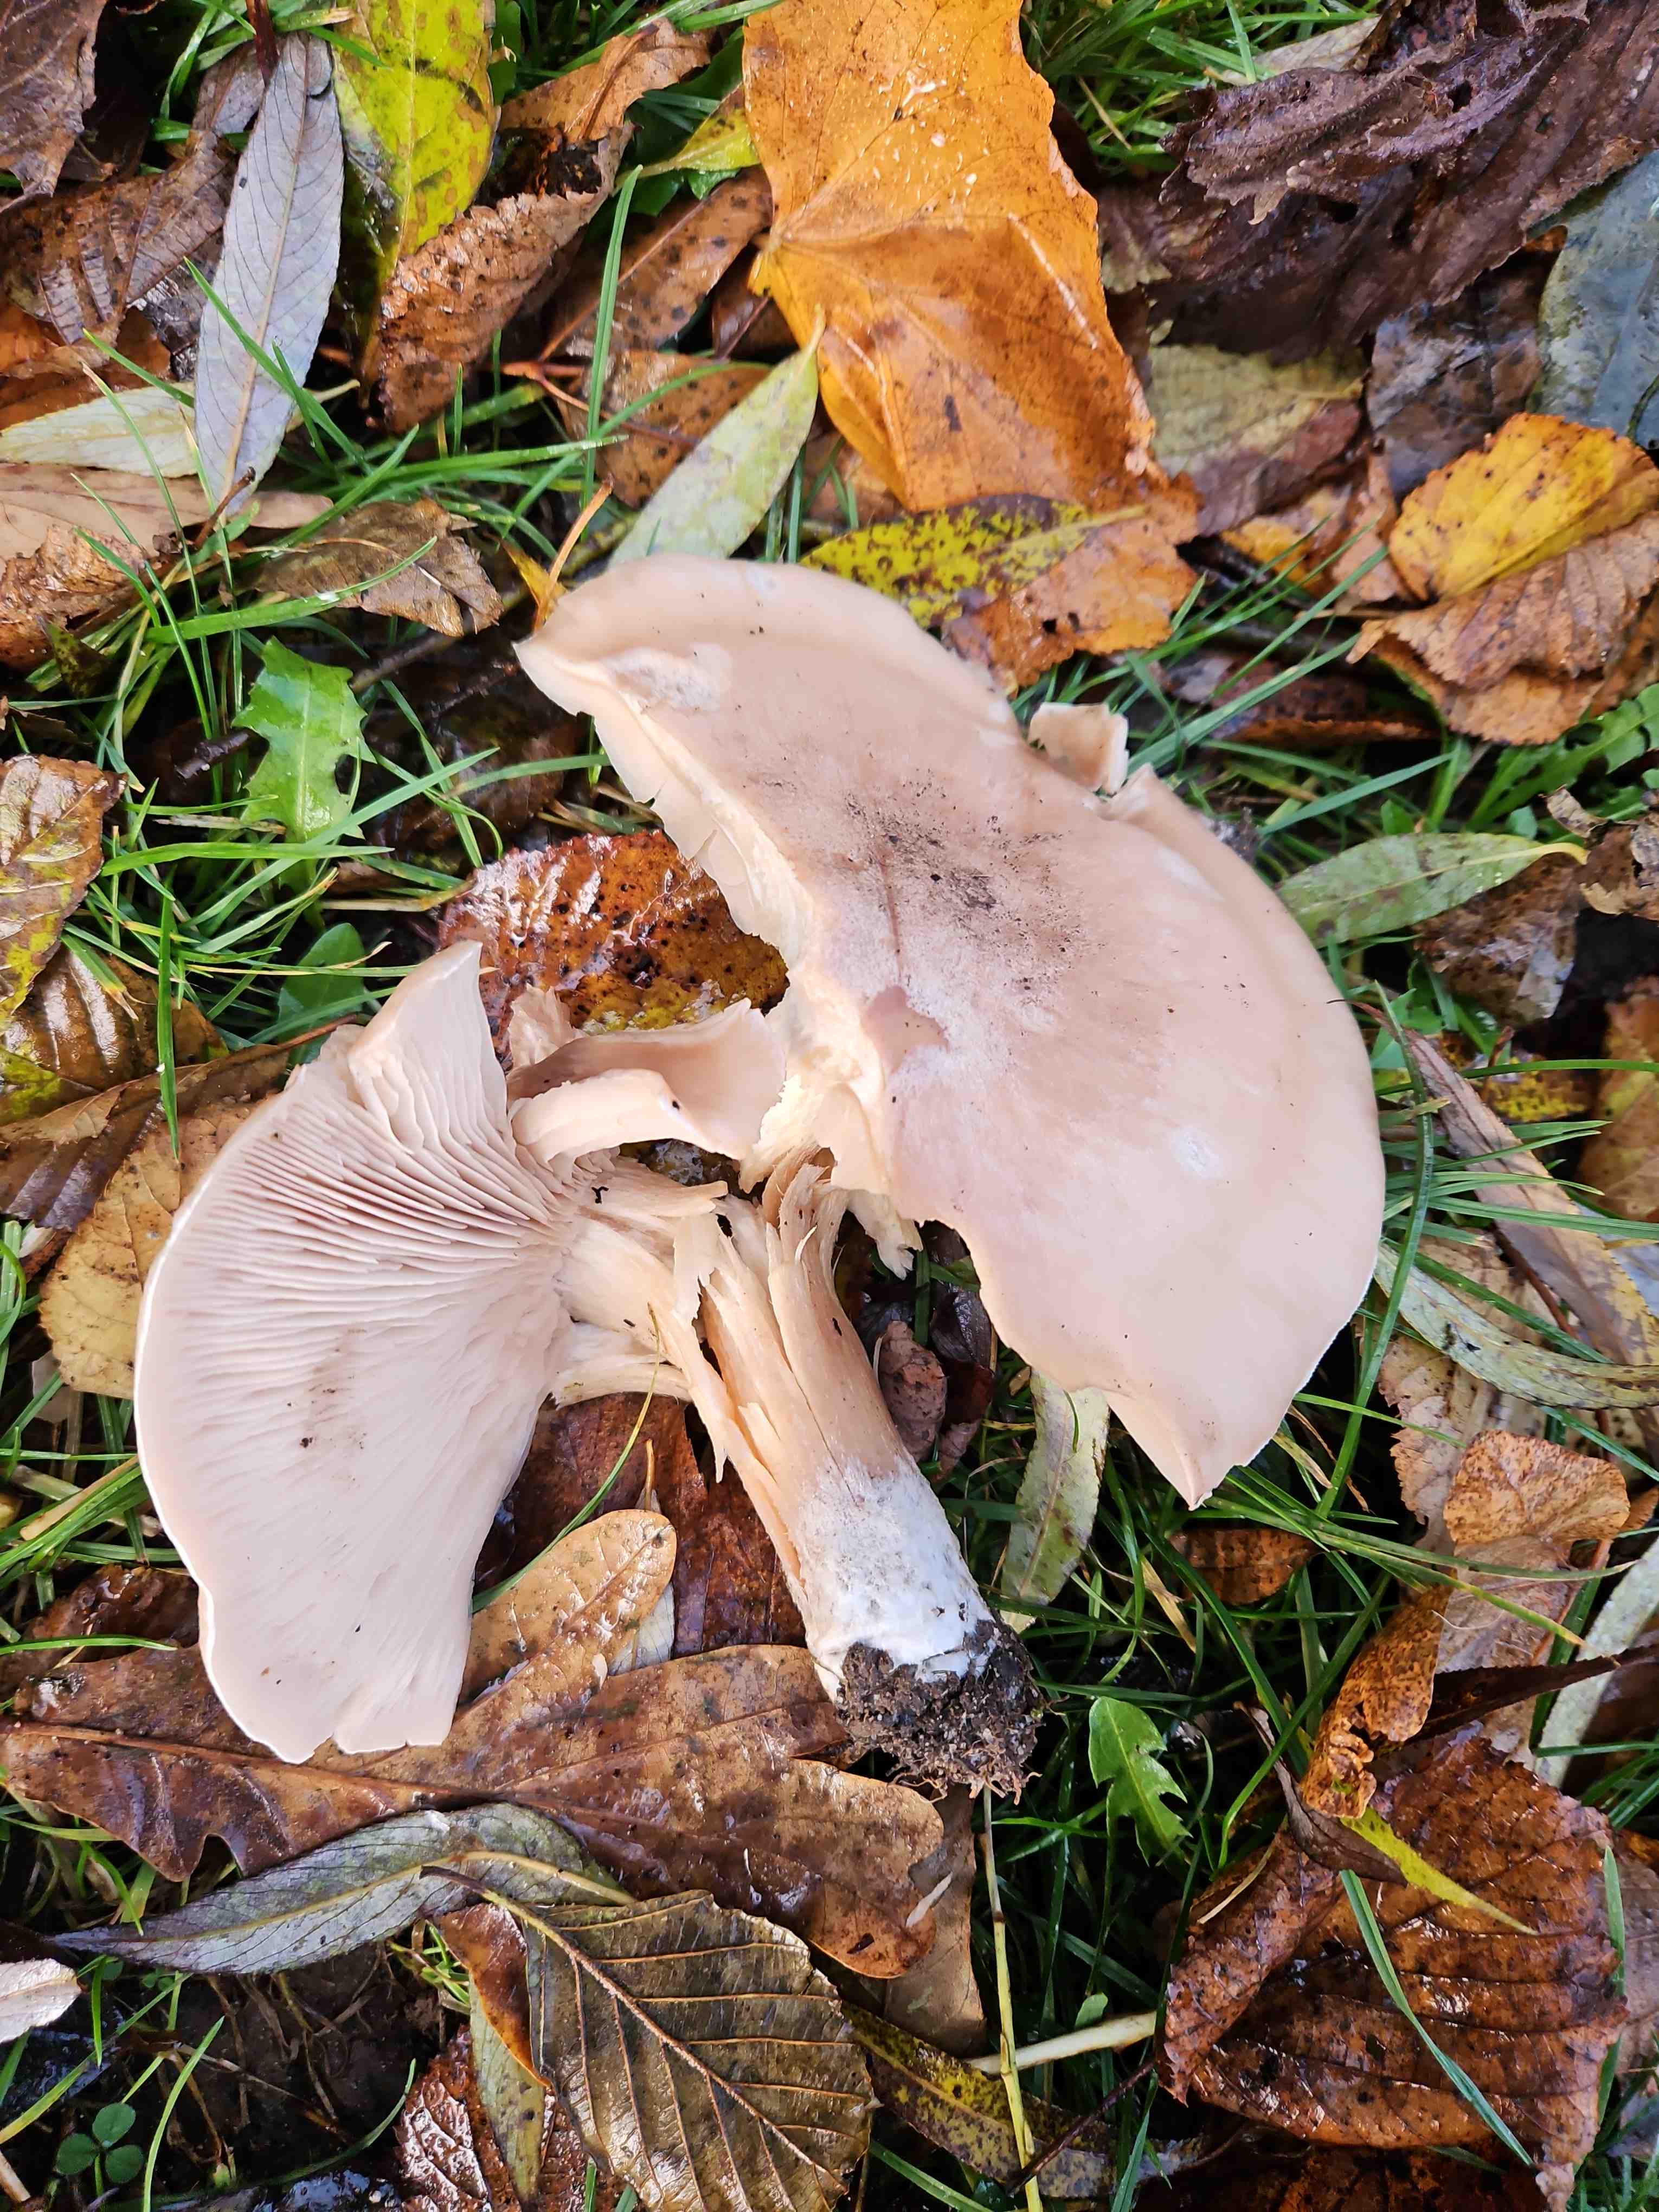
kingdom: Fungi
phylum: Basidiomycota
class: Agaricomycetes
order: Agaricales
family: Tricholomataceae
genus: Lepista
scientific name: Lepista irina
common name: violduftende hekseringshat
